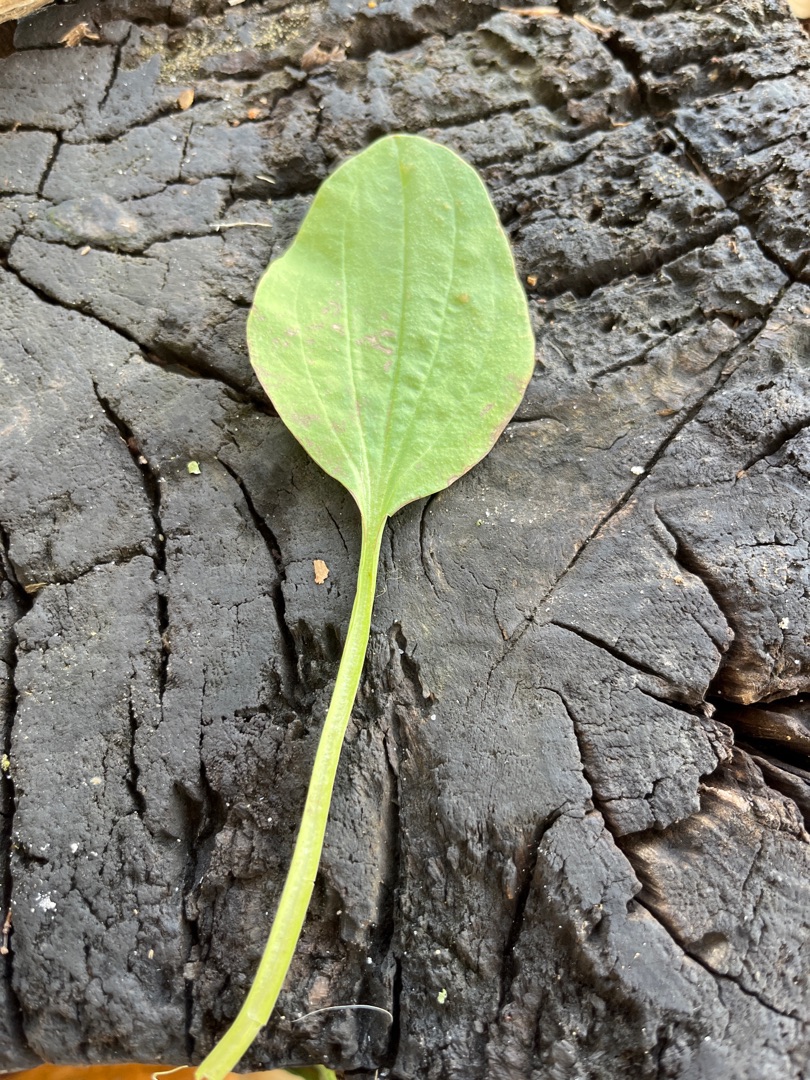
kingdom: Plantae
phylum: Tracheophyta
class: Magnoliopsida
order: Lamiales
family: Plantaginaceae
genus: Plantago
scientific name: Plantago major
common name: Glat vejbred
